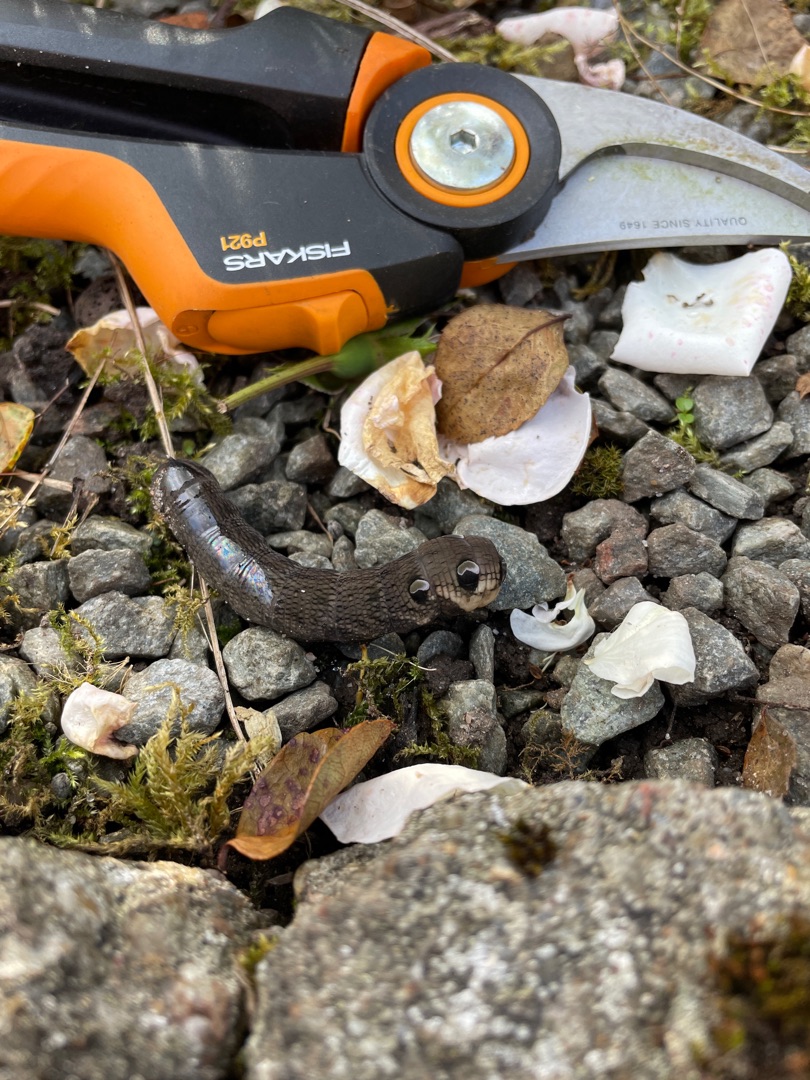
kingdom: Animalia
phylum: Arthropoda
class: Insecta
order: Lepidoptera
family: Sphingidae
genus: Deilephila
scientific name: Deilephila elpenor
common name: Dueurtsværmer
